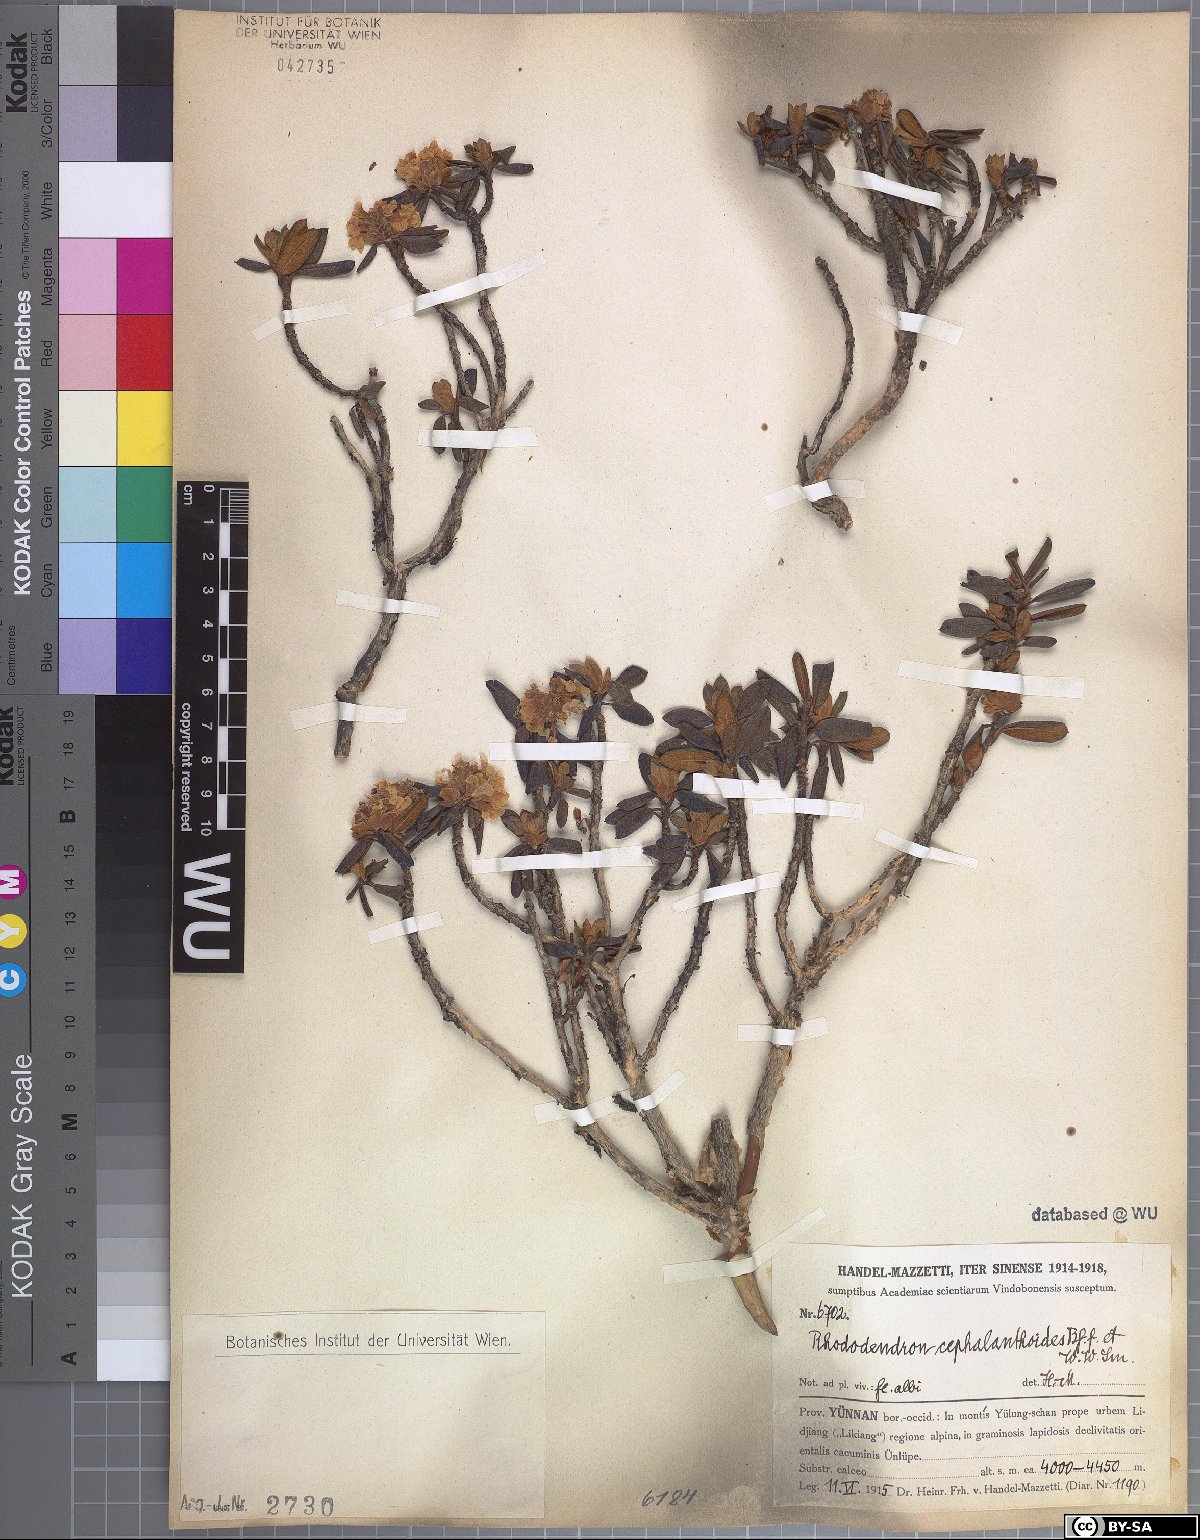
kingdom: Plantae
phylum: Tracheophyta
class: Magnoliopsida
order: Ericales
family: Ericaceae
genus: Rhododendron
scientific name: Rhododendron primuliflorum
